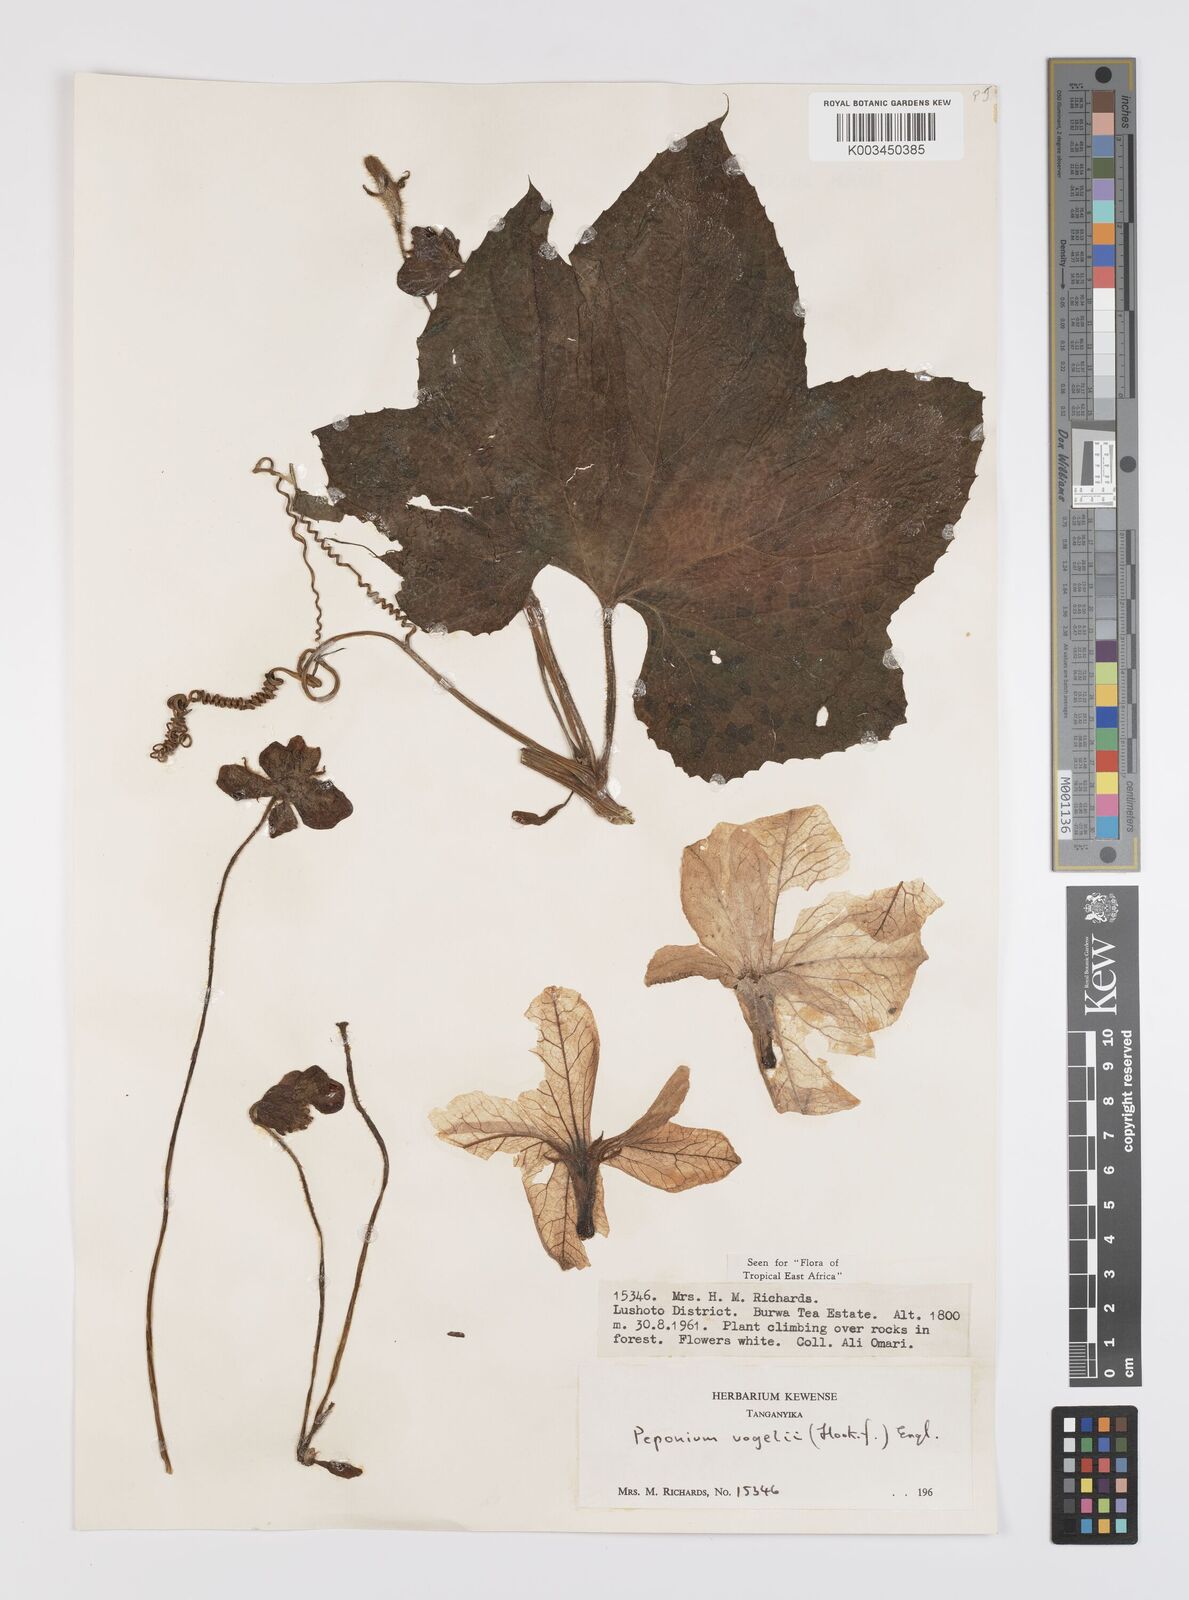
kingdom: Plantae
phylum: Tracheophyta
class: Magnoliopsida
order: Cucurbitales
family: Cucurbitaceae
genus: Peponium
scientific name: Peponium vogelii
